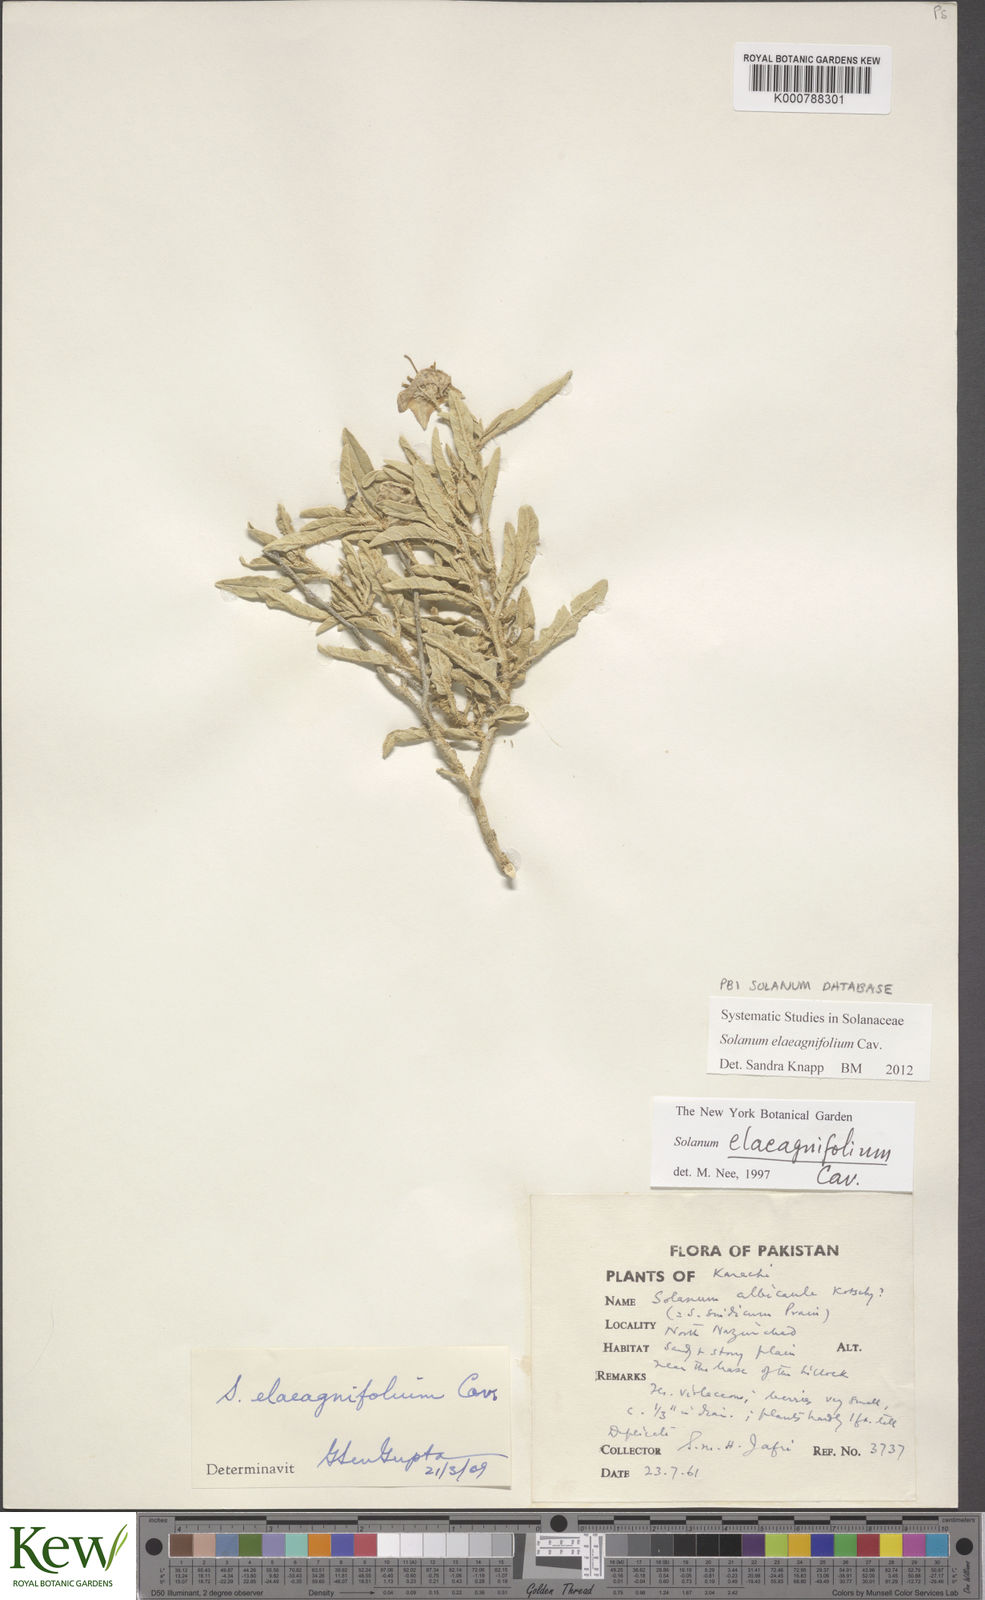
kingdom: Plantae
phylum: Tracheophyta
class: Magnoliopsida
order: Solanales
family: Solanaceae
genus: Solanum
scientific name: Solanum elaeagnifolium
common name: Silverleaf nightshade
